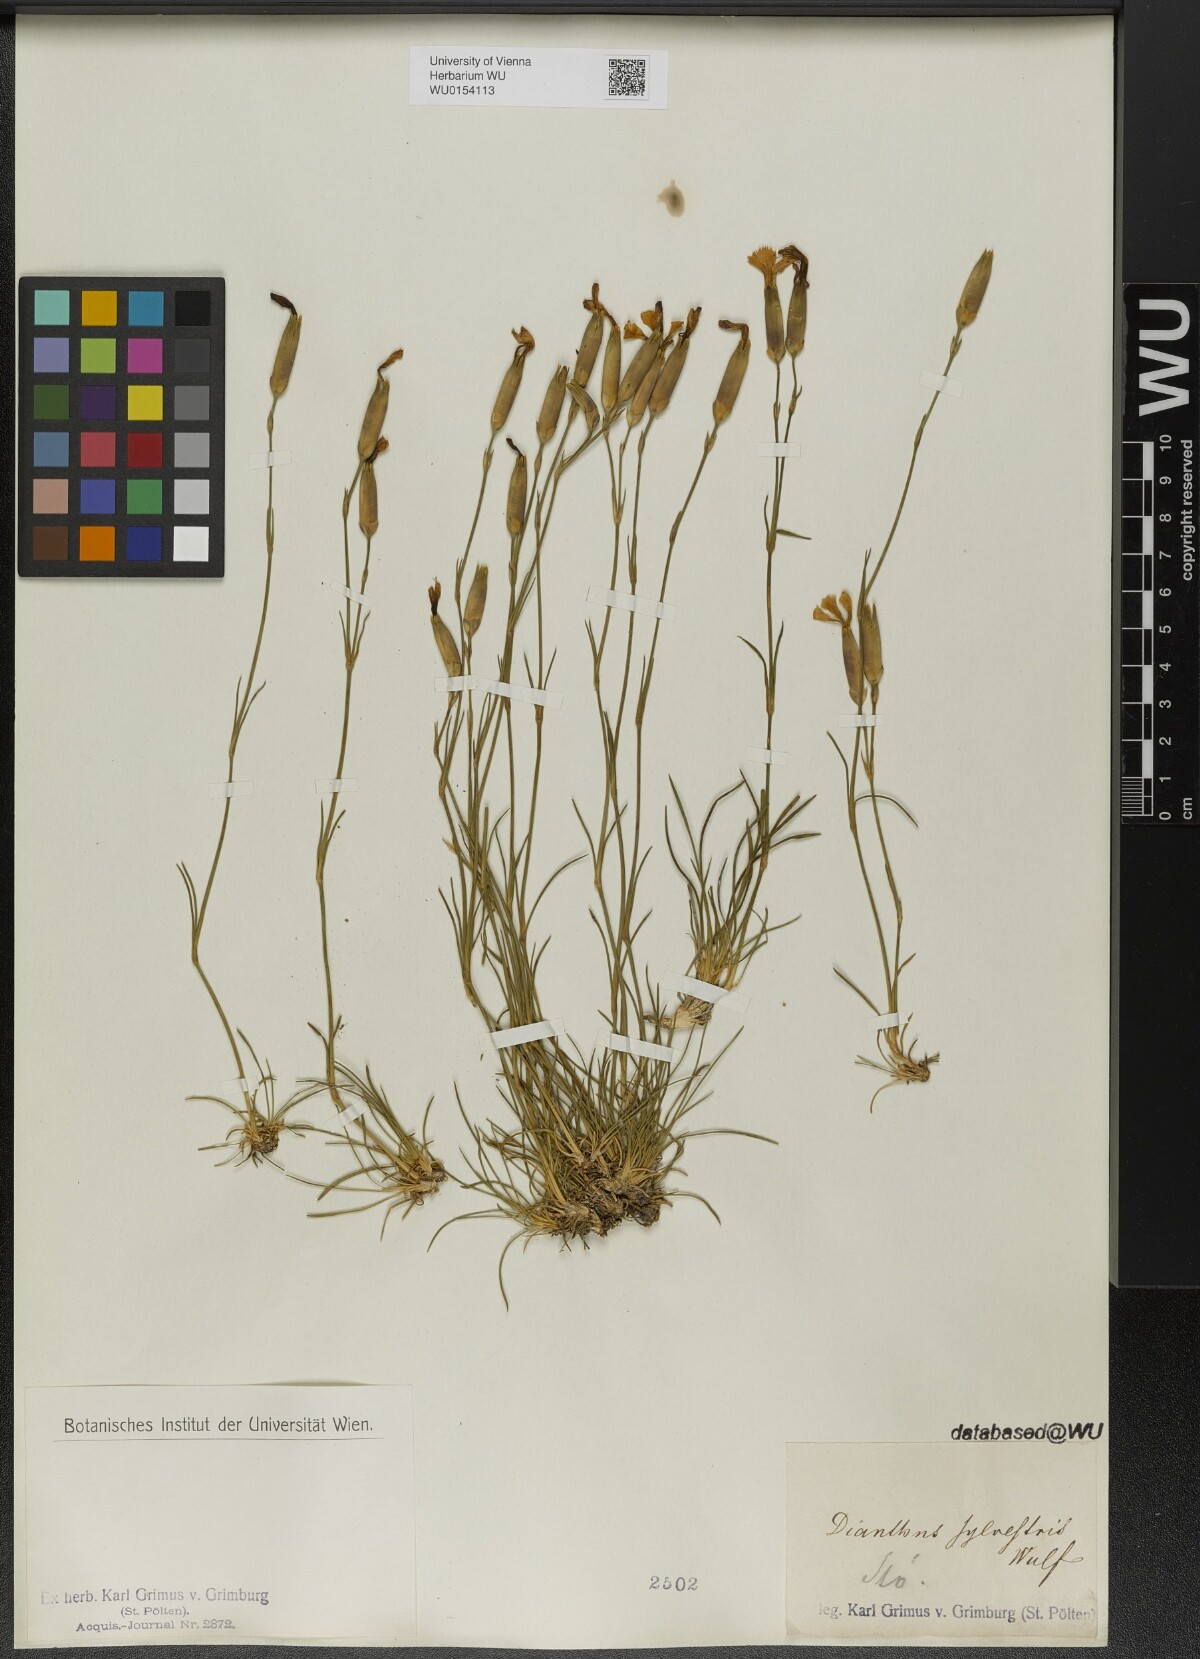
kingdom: Plantae
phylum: Tracheophyta
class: Magnoliopsida
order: Caryophyllales
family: Caryophyllaceae
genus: Dianthus
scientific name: Dianthus sylvestris
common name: Wood pink
